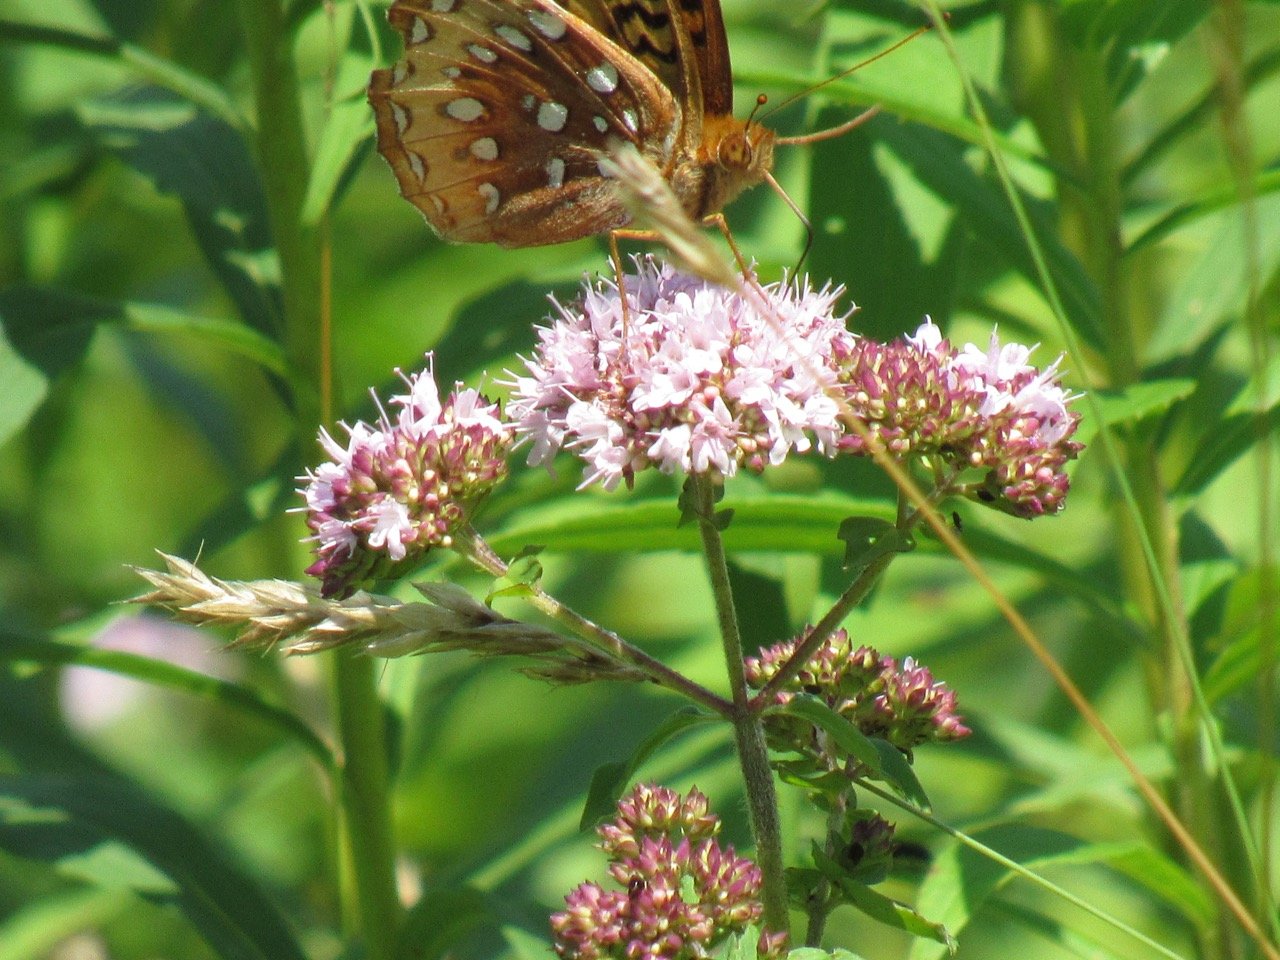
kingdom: Animalia
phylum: Arthropoda
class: Insecta
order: Lepidoptera
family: Nymphalidae
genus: Speyeria
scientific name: Speyeria cybele
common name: Great Spangled Fritillary
